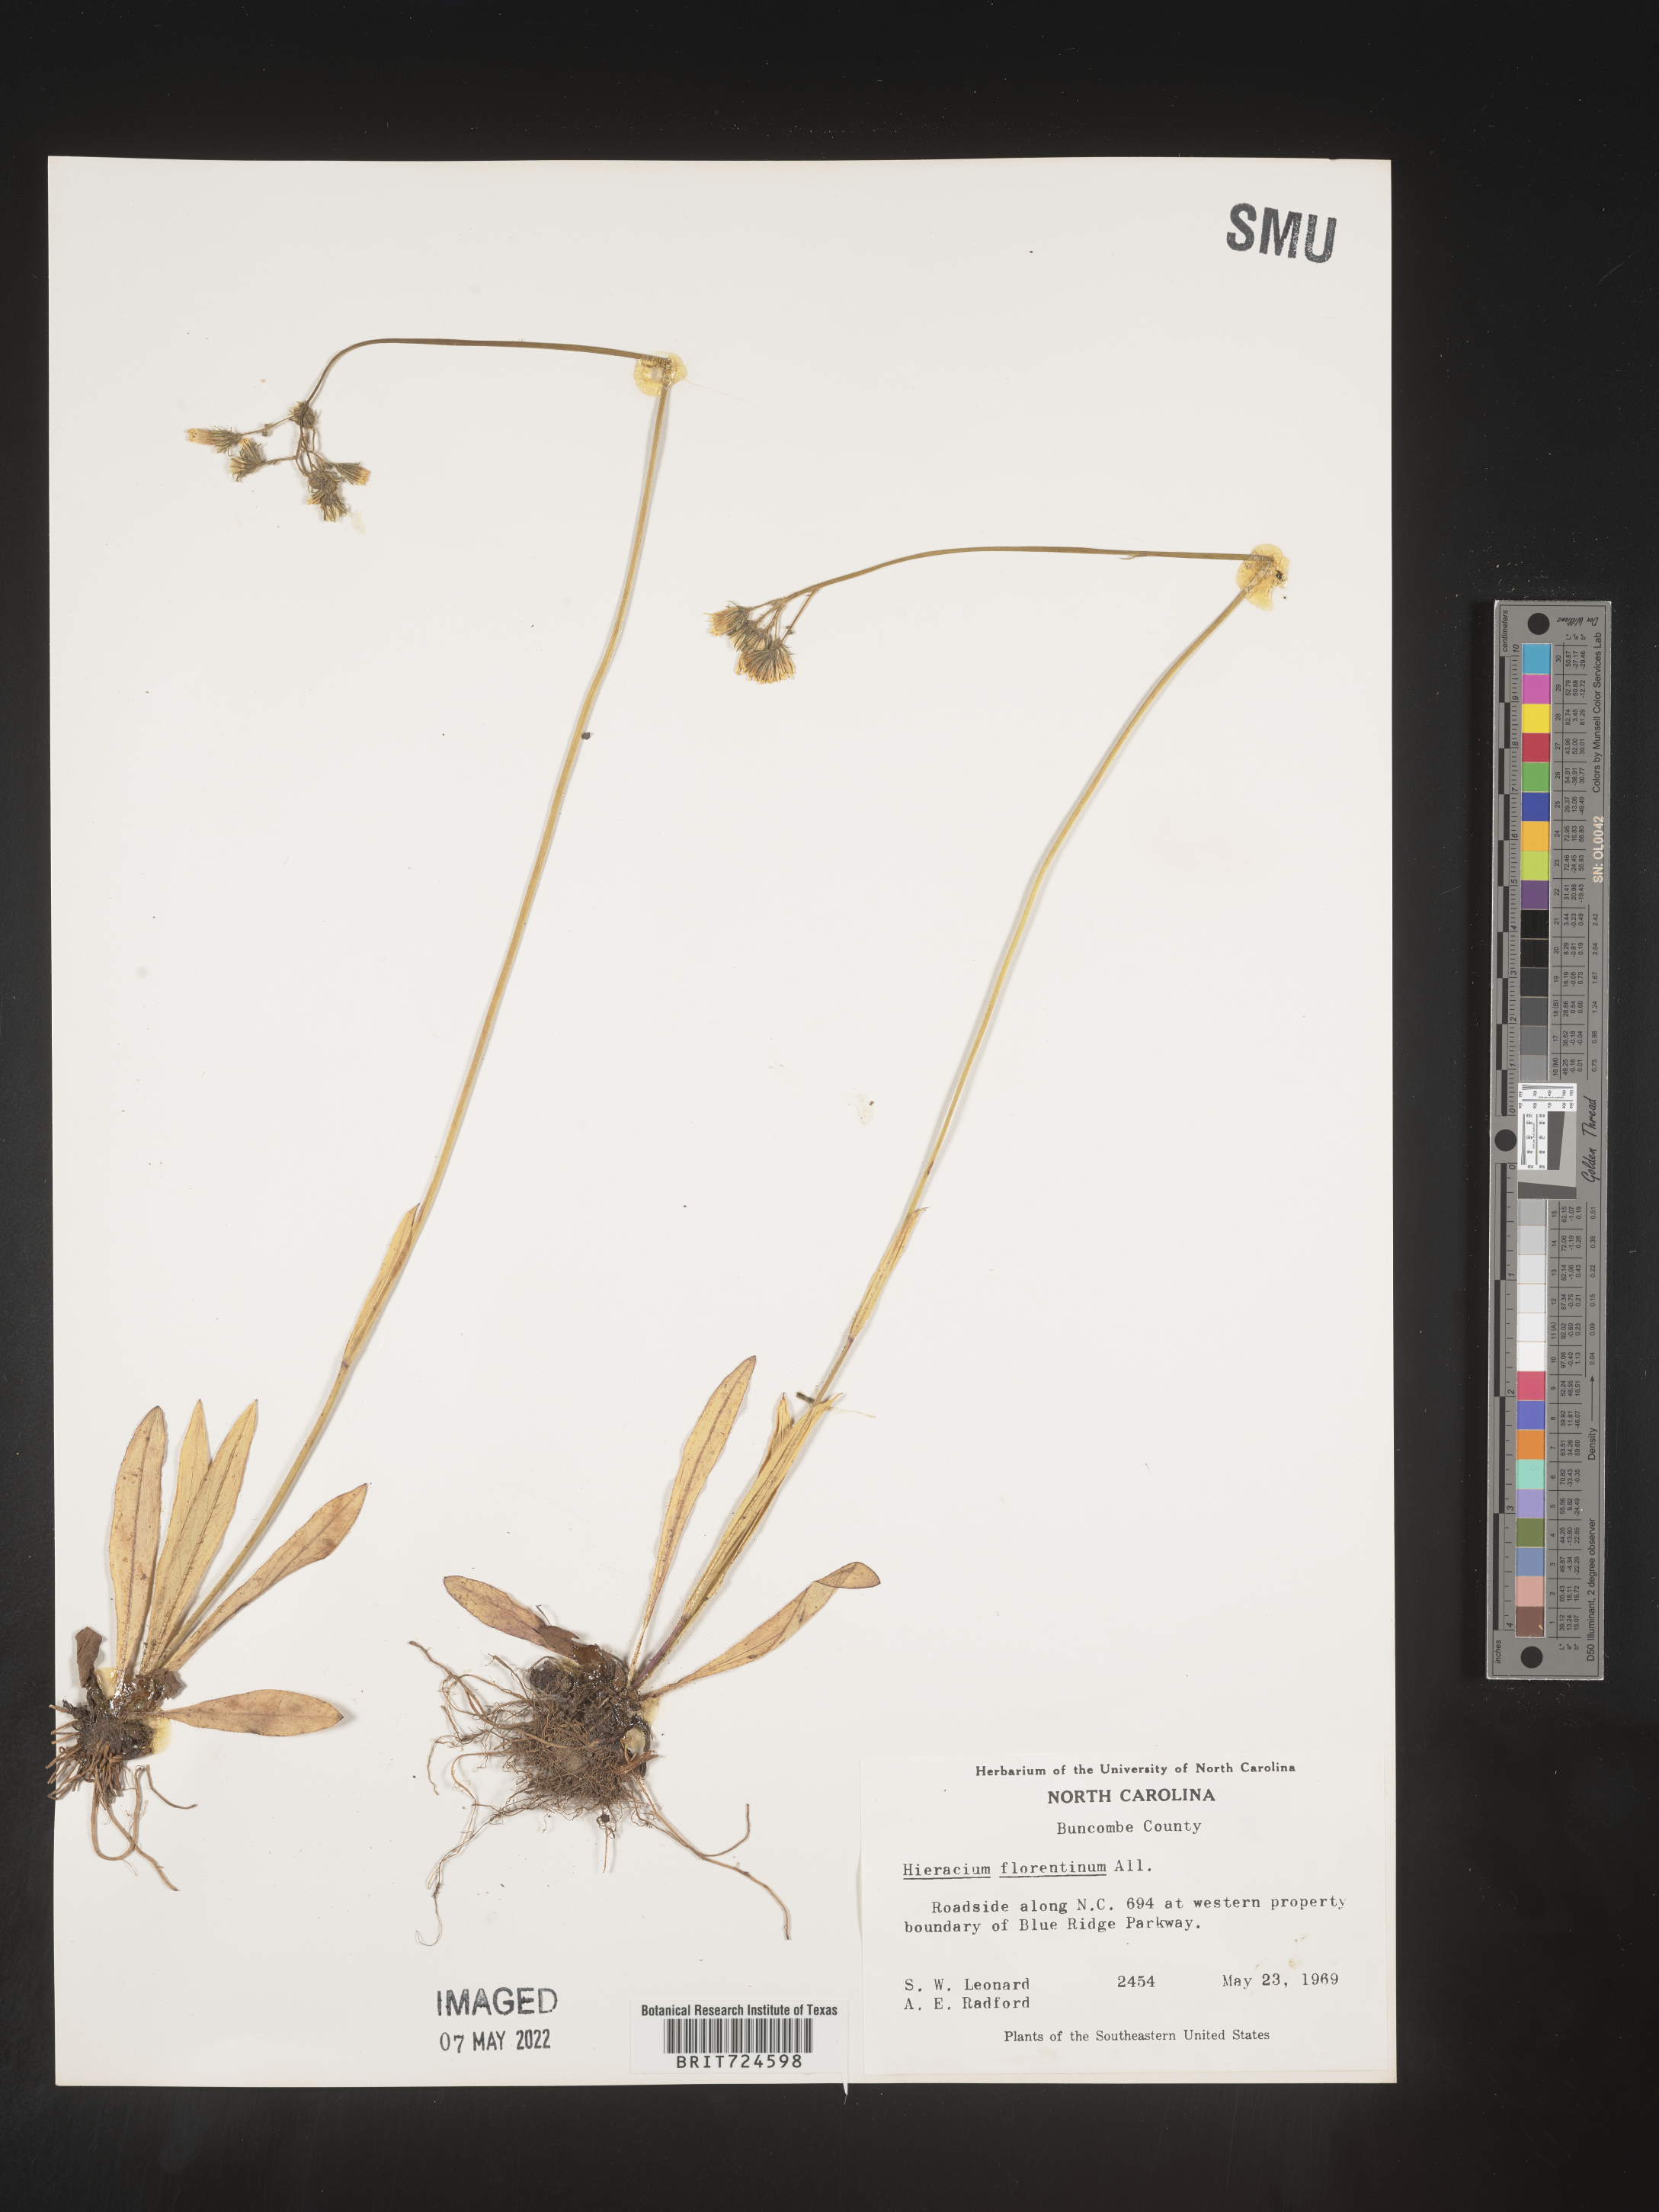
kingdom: Plantae
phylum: Tracheophyta
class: Magnoliopsida
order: Asterales
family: Asteraceae
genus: Pilosella
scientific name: Pilosella piloselloides
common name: Glaucous king-devil
